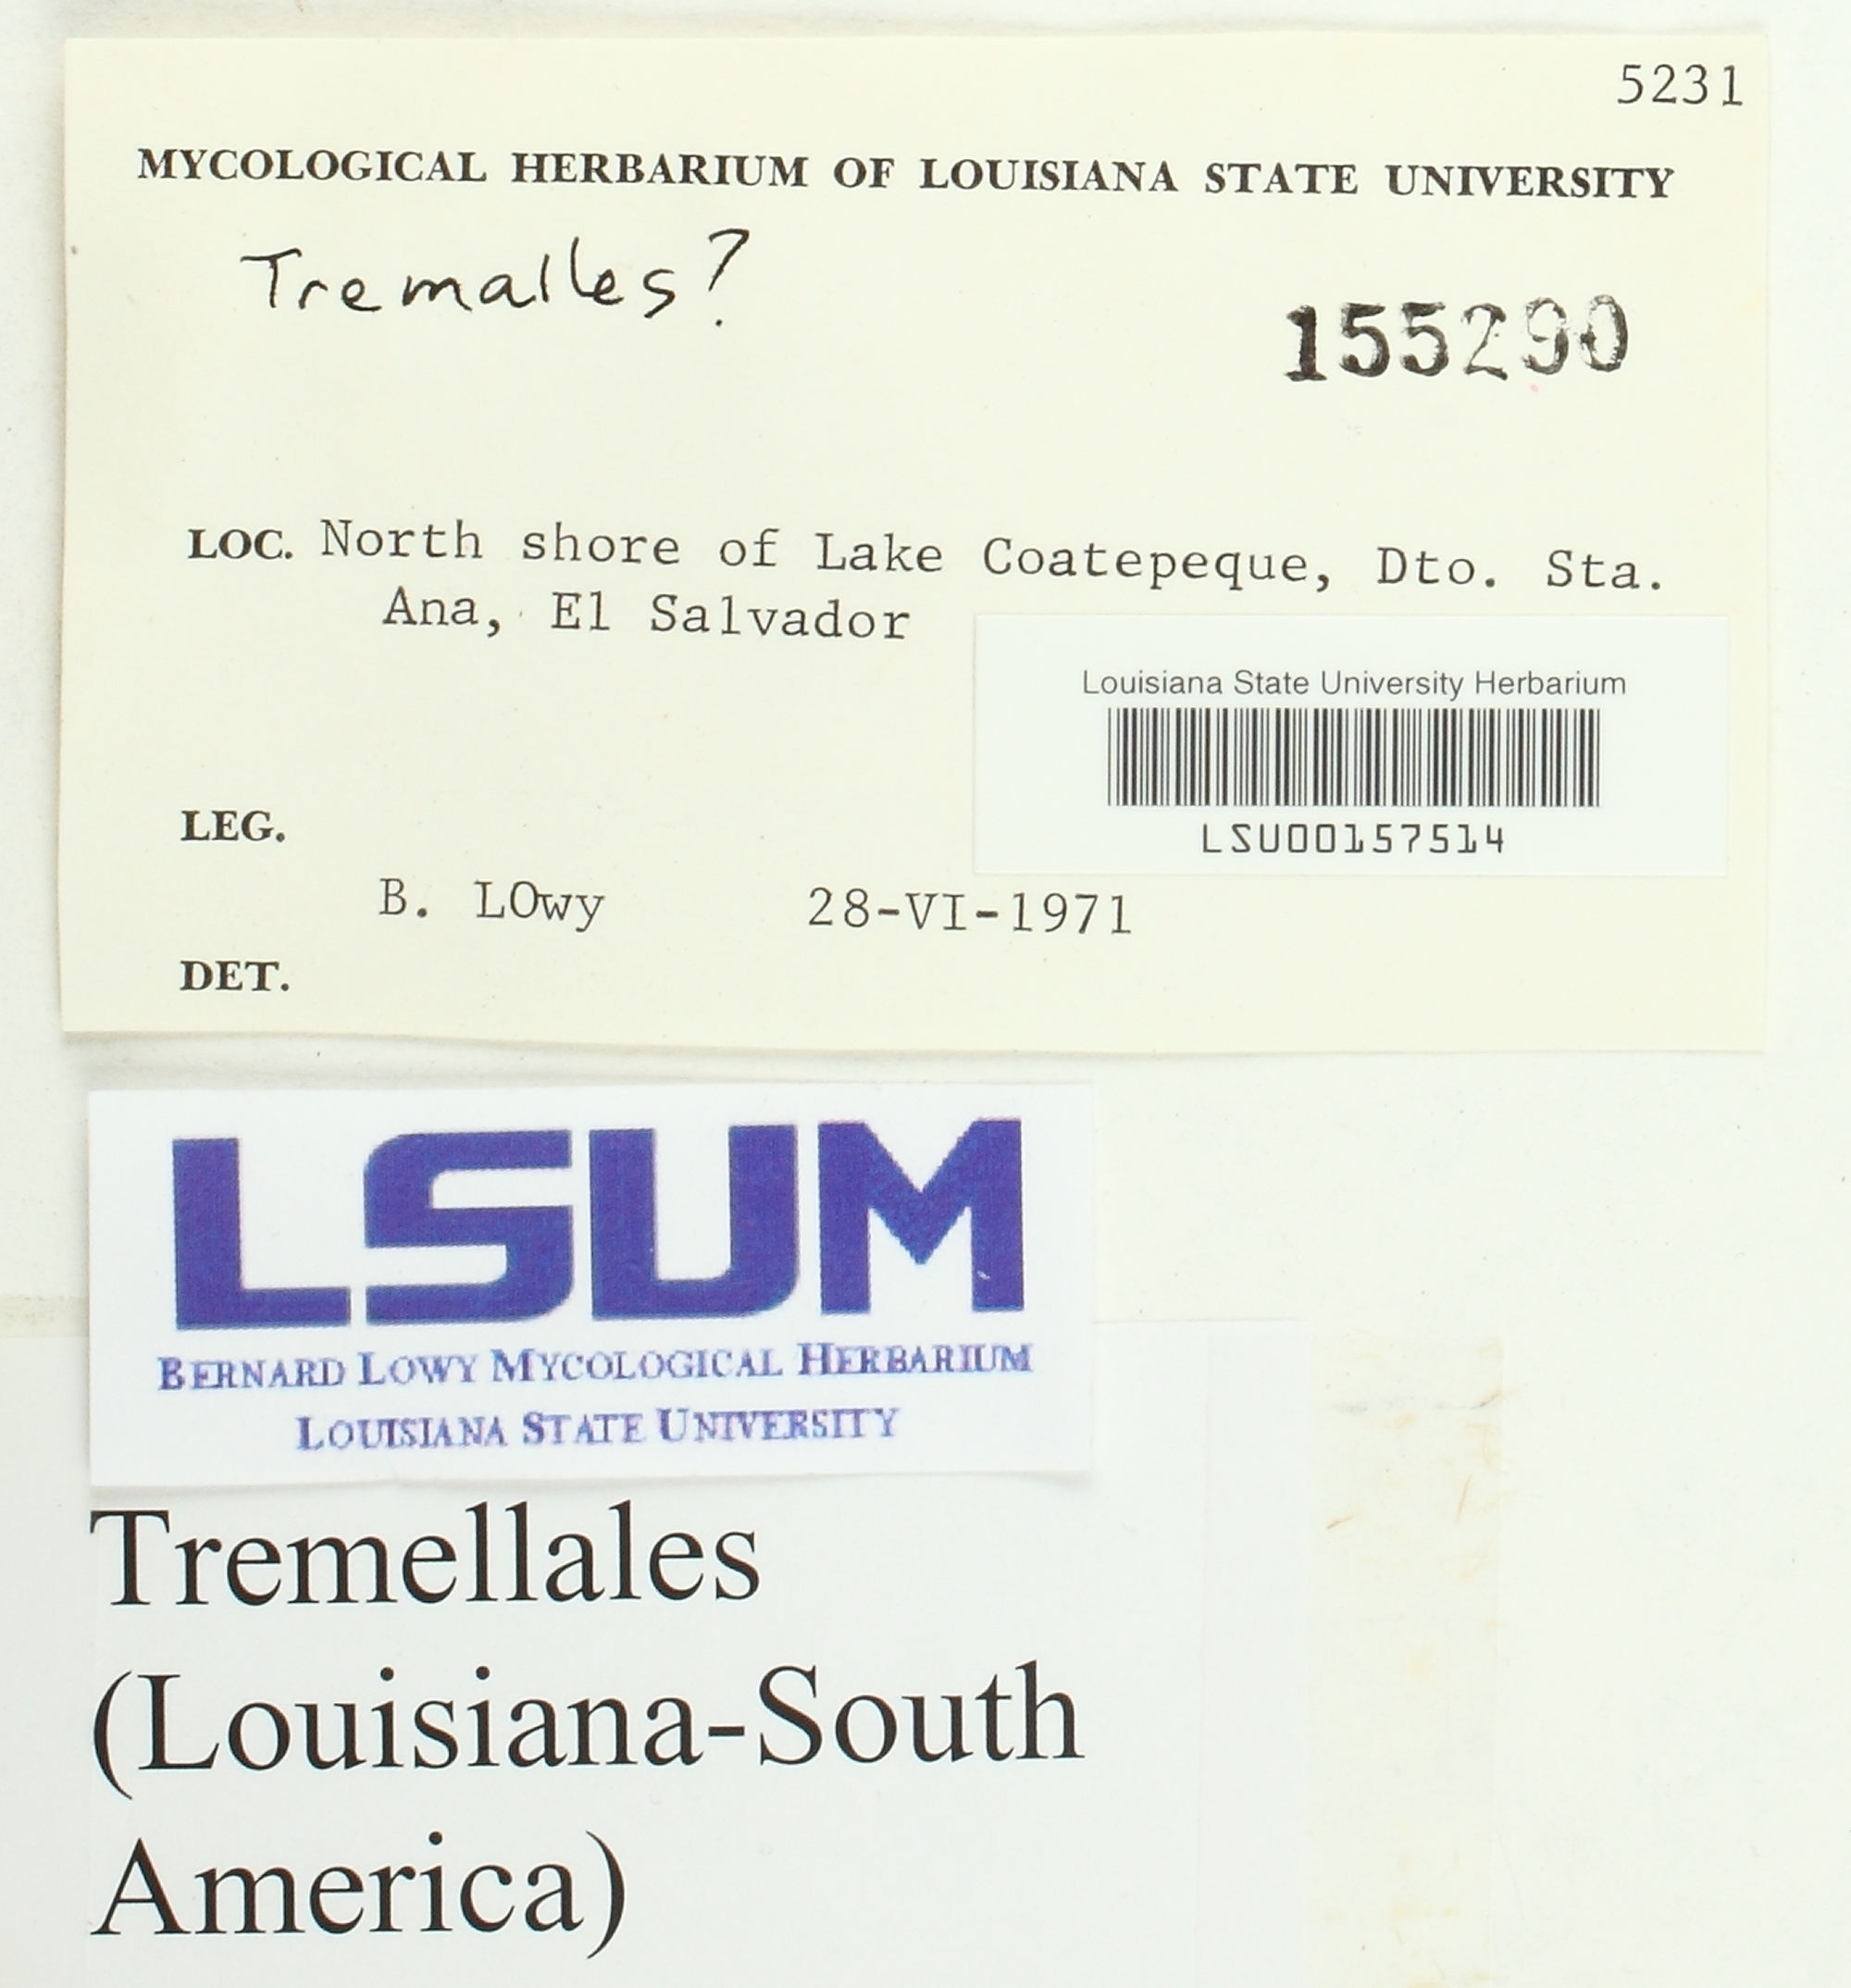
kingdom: Fungi
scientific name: Fungi
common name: Fungi
